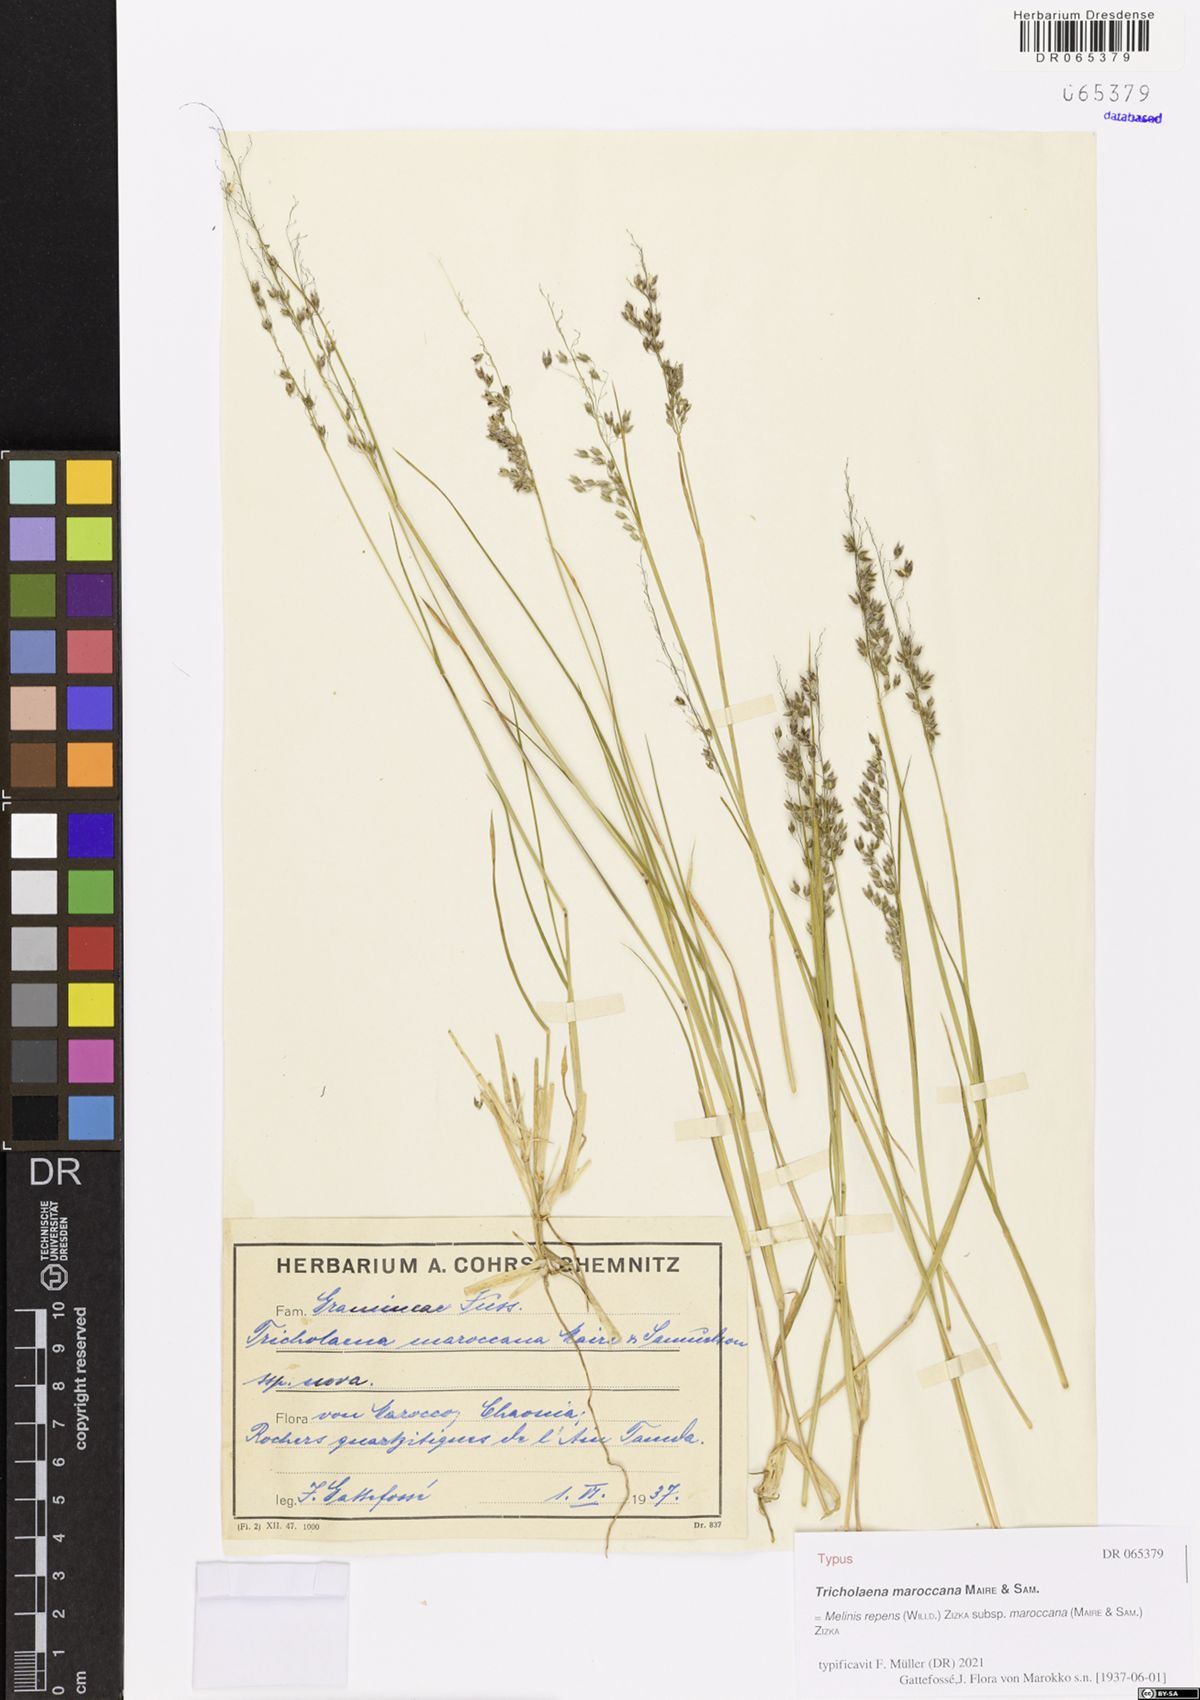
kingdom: Plantae
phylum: Tracheophyta
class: Liliopsida
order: Poales
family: Poaceae
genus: Melinis
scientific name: Melinis maroccana
